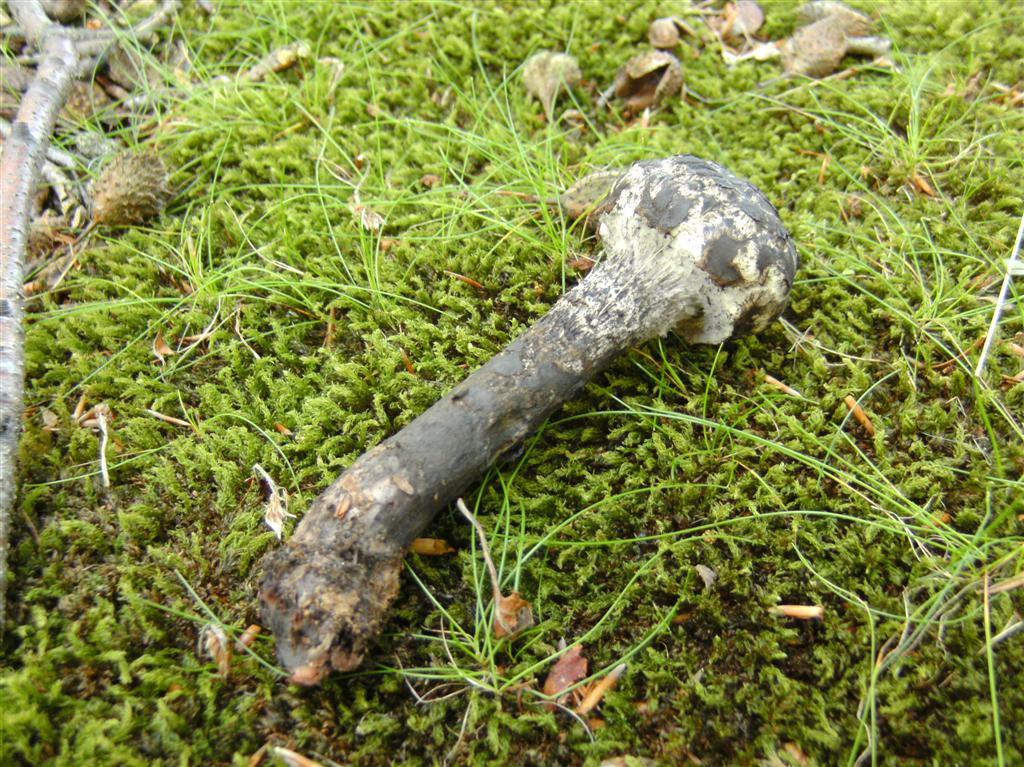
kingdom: Fungi
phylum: Basidiomycota
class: Agaricomycetes
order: Boletales
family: Boletaceae
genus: Strobilomyces
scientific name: Strobilomyces strobilaceus
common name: koglerørhat
